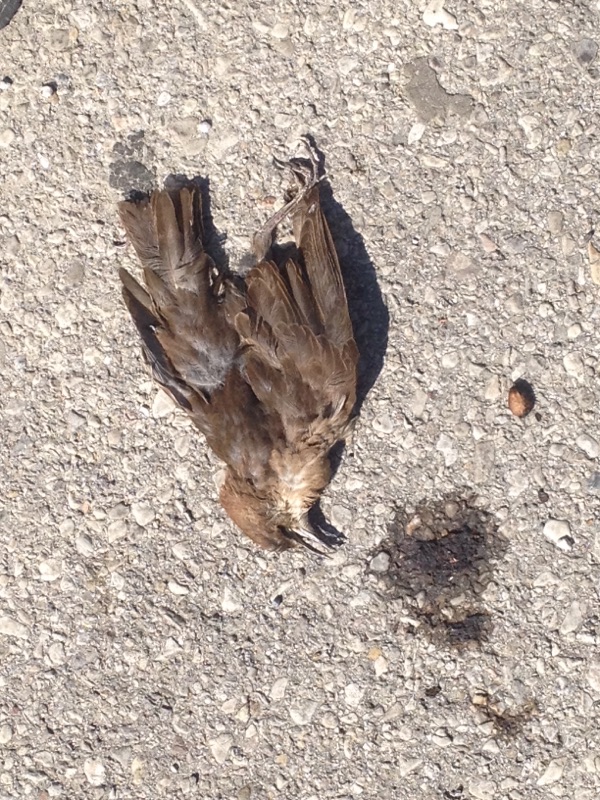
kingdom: Animalia
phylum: Chordata
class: Aves
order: Passeriformes
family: Sturnidae
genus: Sturnus
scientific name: Sturnus vulgaris
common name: Common starling
